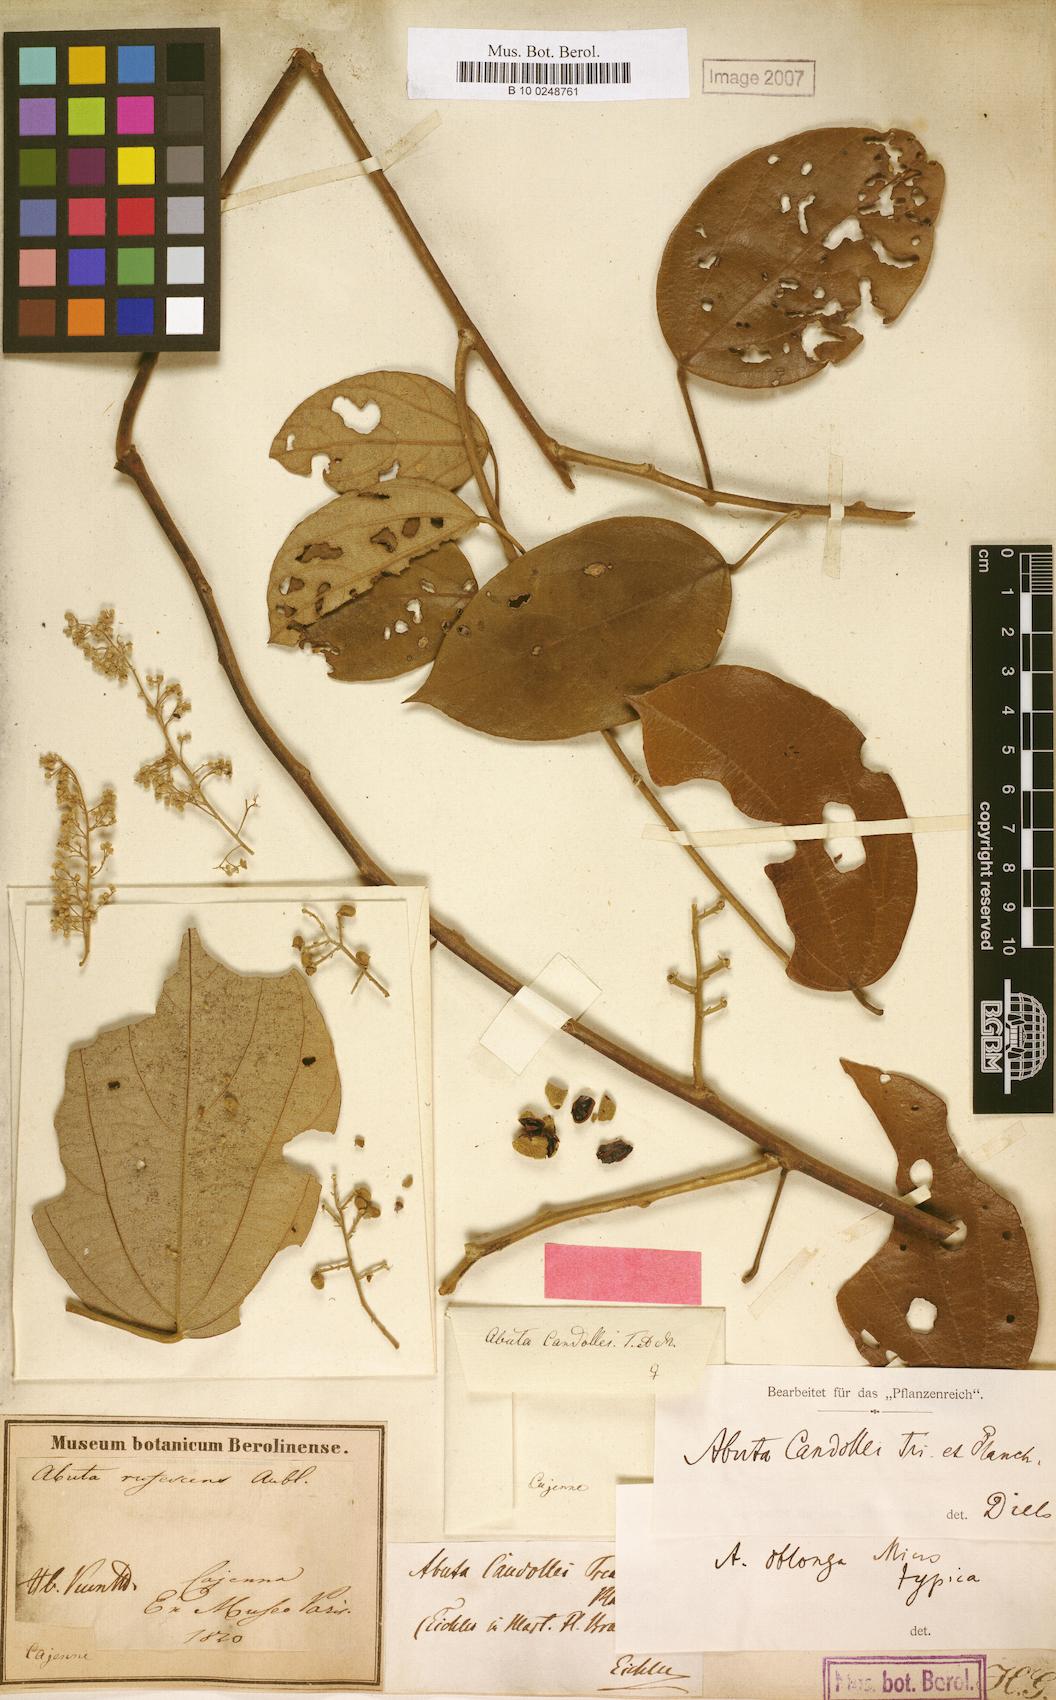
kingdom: Plantae
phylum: Tracheophyta
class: Magnoliopsida
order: Ranunculales
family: Menispermaceae
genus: Abuta
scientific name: Abuta candollei
